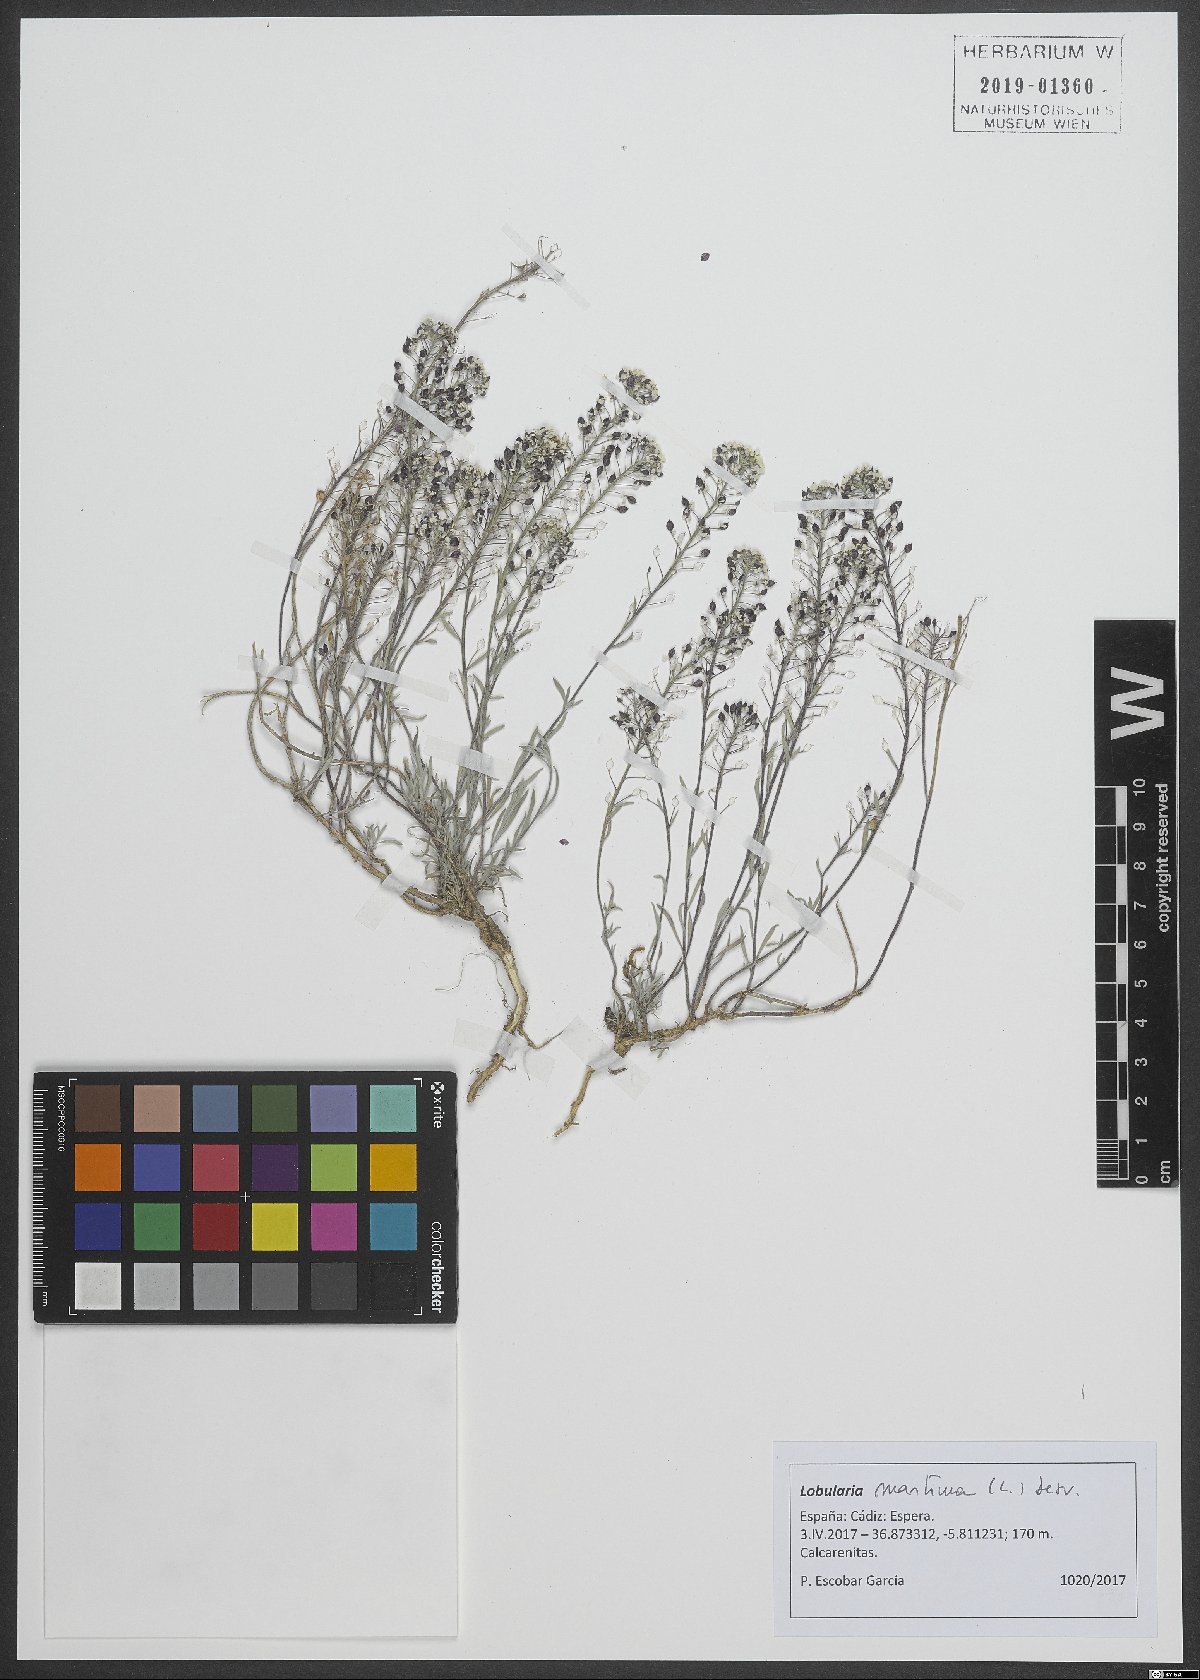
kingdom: Plantae
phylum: Tracheophyta
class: Magnoliopsida
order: Brassicales
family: Brassicaceae
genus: Lobularia
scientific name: Lobularia maritima
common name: Sweet alison
